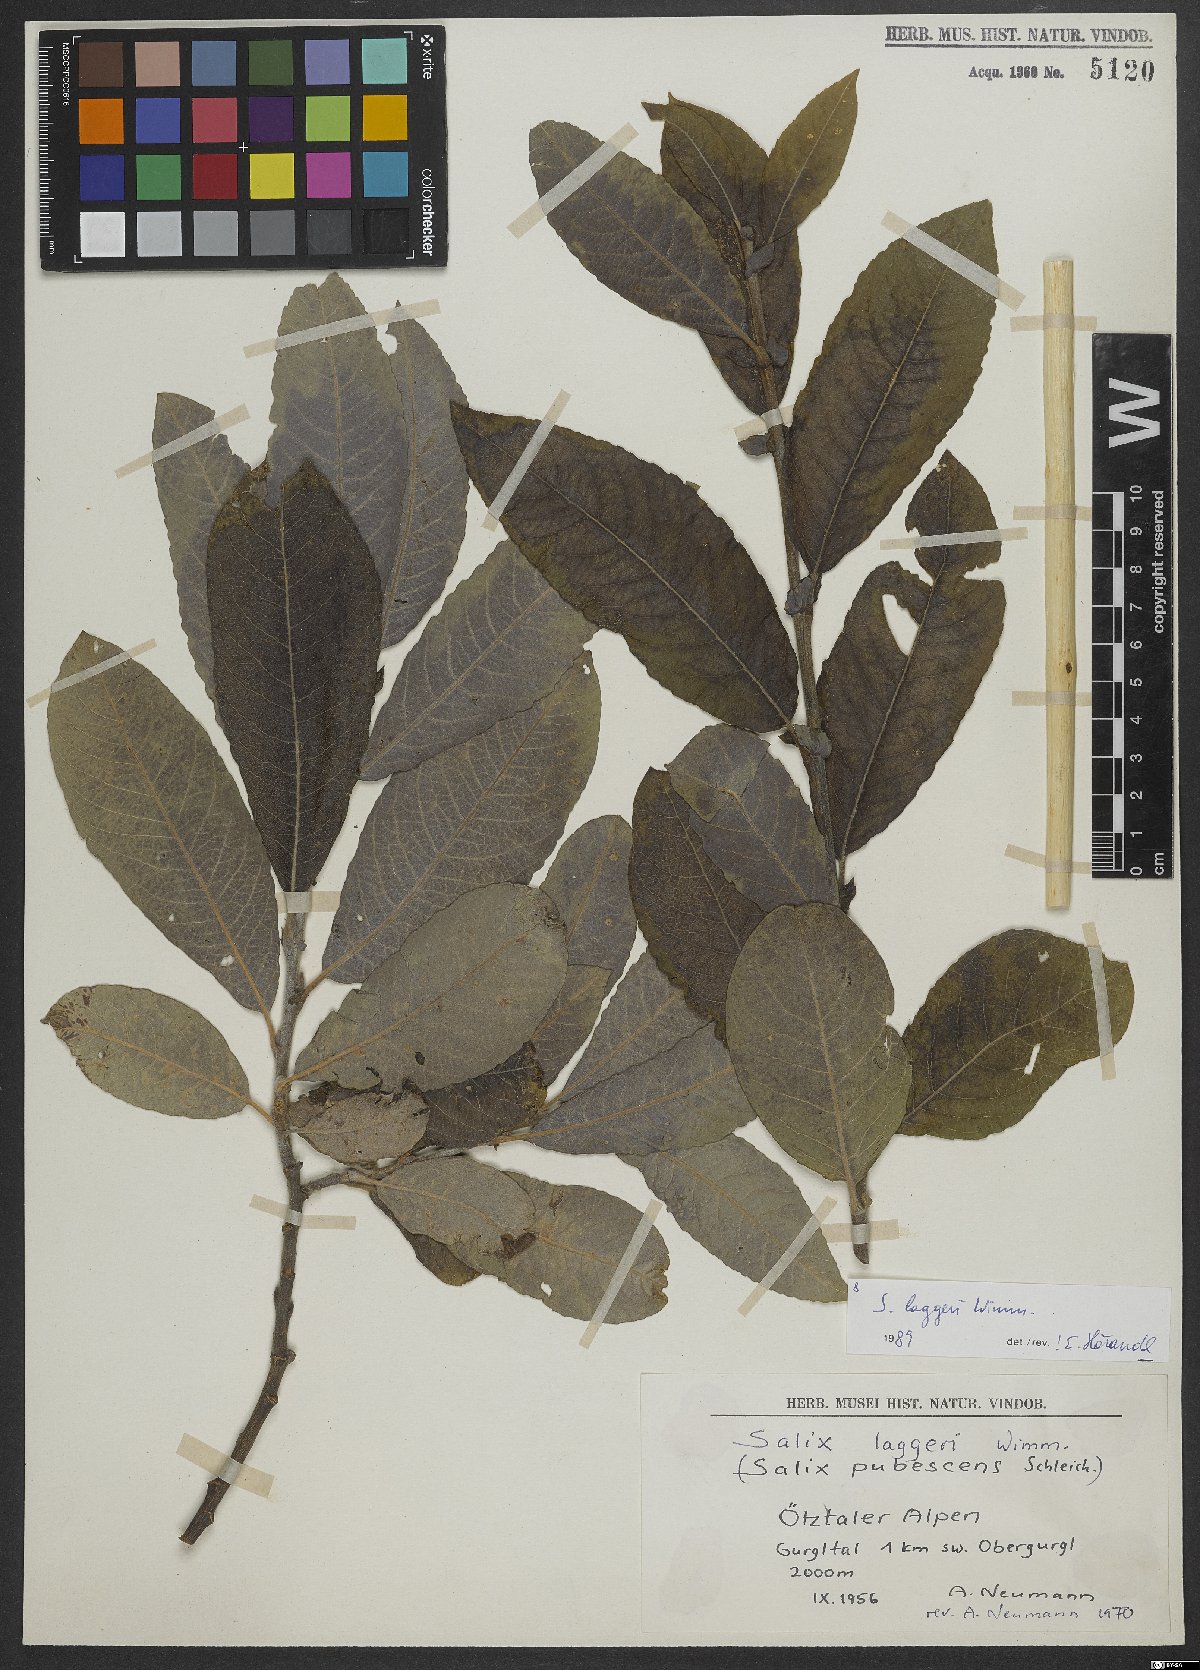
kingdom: Plantae
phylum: Tracheophyta
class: Magnoliopsida
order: Malpighiales
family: Salicaceae
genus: Salix
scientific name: Salix laggeri
